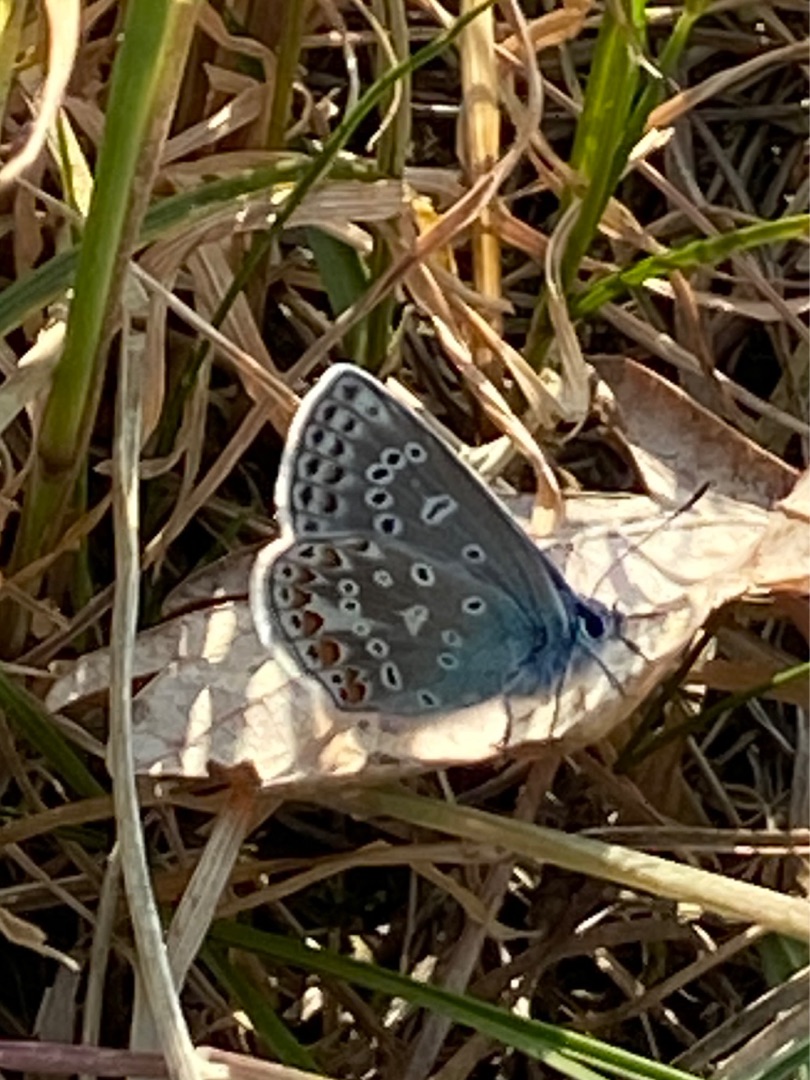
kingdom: Animalia
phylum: Arthropoda
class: Insecta
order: Lepidoptera
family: Lycaenidae
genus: Polyommatus
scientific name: Polyommatus icarus
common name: Almindelig blåfugl
